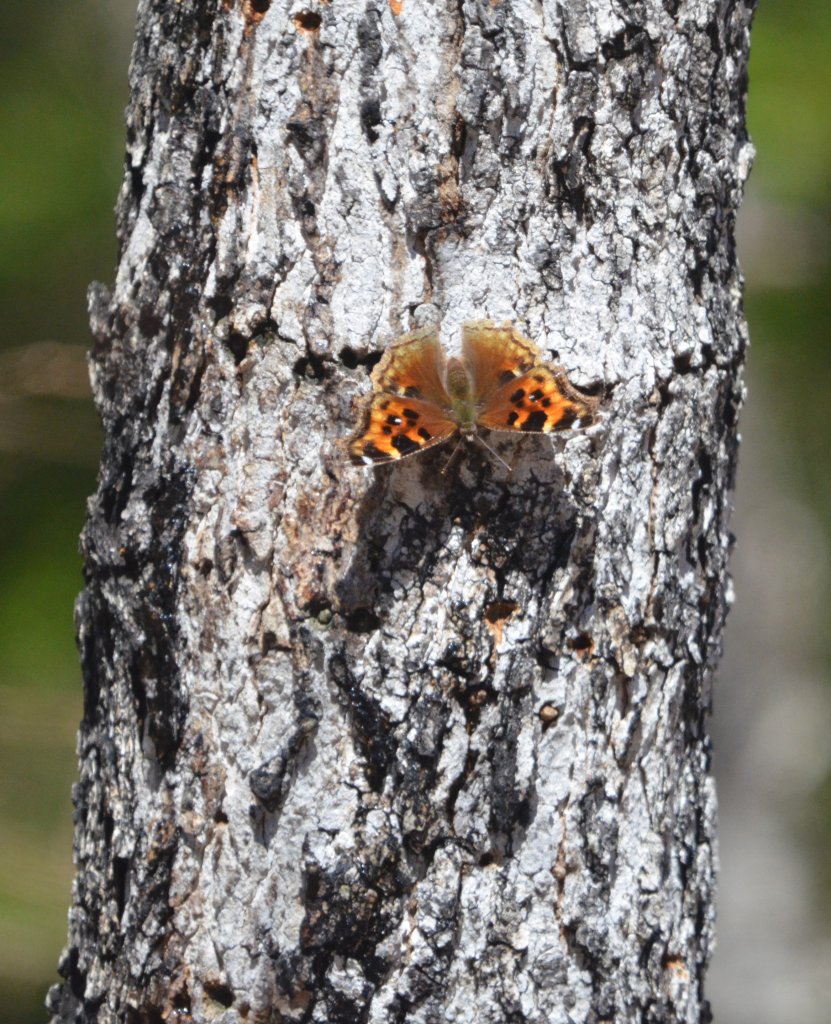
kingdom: Animalia
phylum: Arthropoda
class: Insecta
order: Lepidoptera
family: Nymphalidae
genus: Polygonia
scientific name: Polygonia vaualbum
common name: Compton Tortoiseshell
